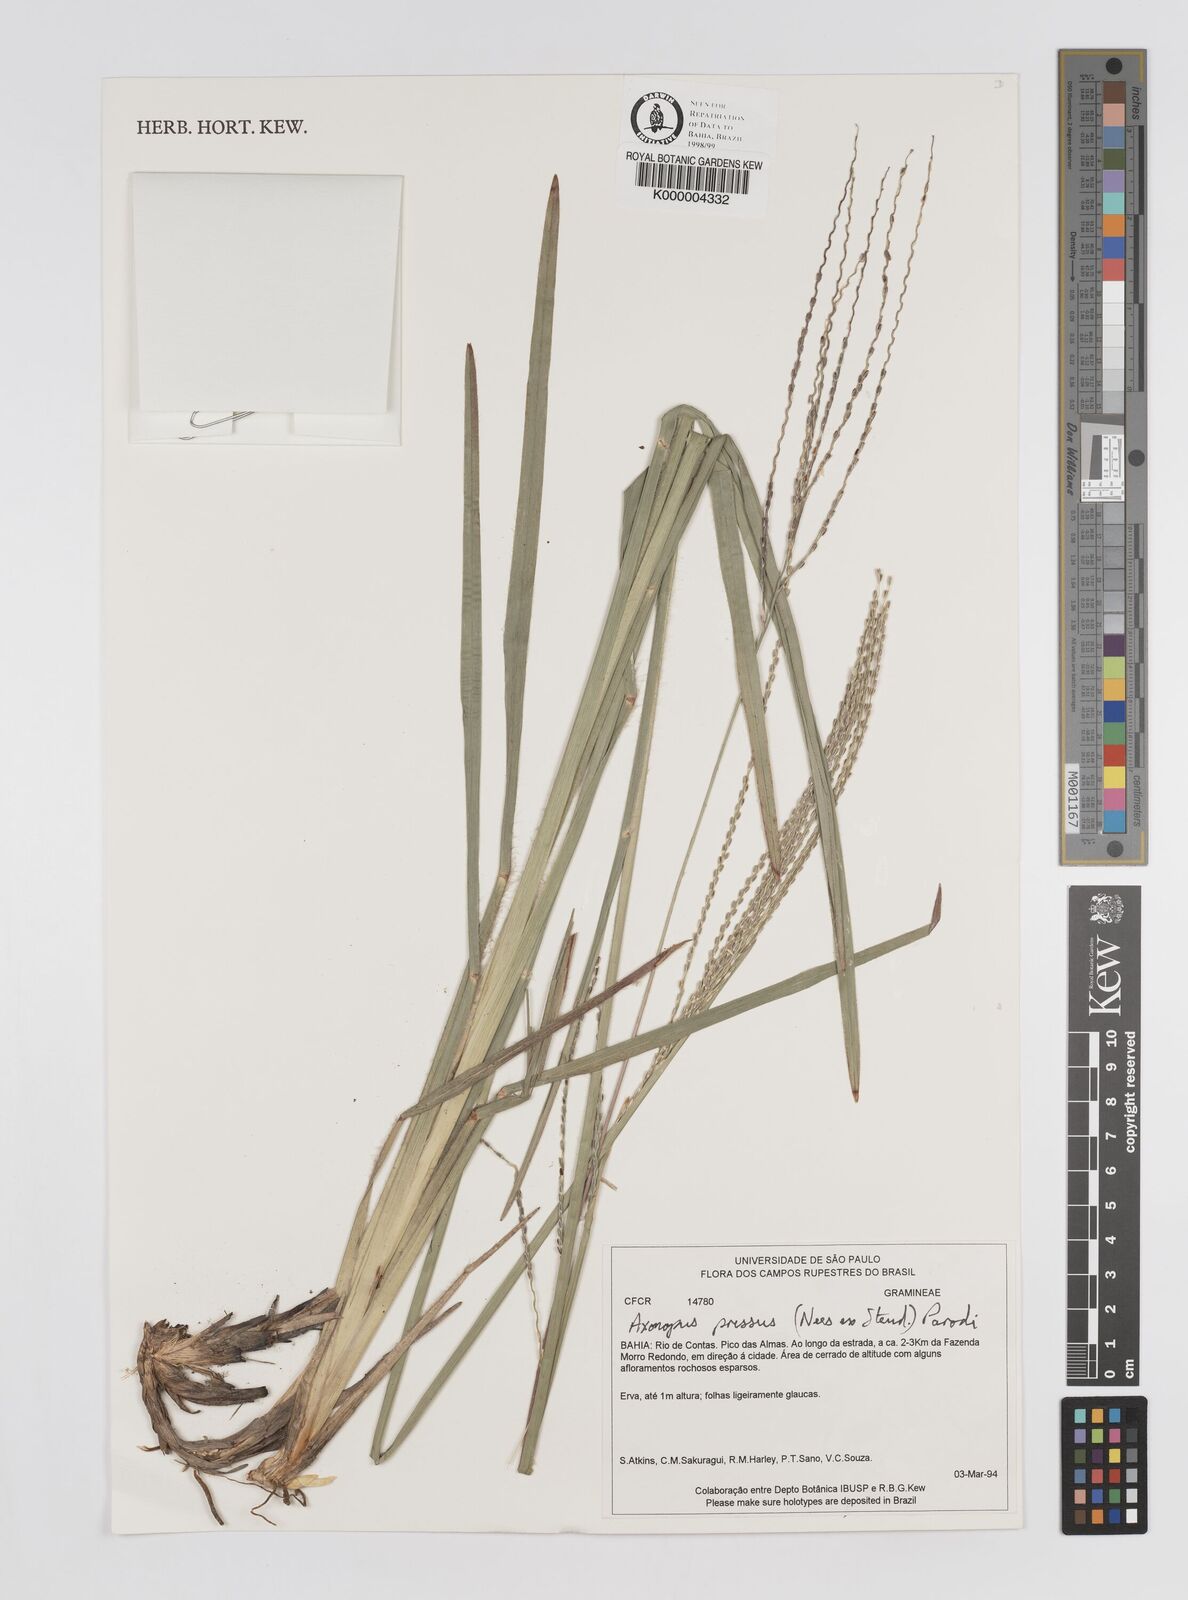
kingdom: Plantae
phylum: Tracheophyta
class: Liliopsida
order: Poales
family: Poaceae
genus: Axonopus
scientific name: Axonopus pressus
